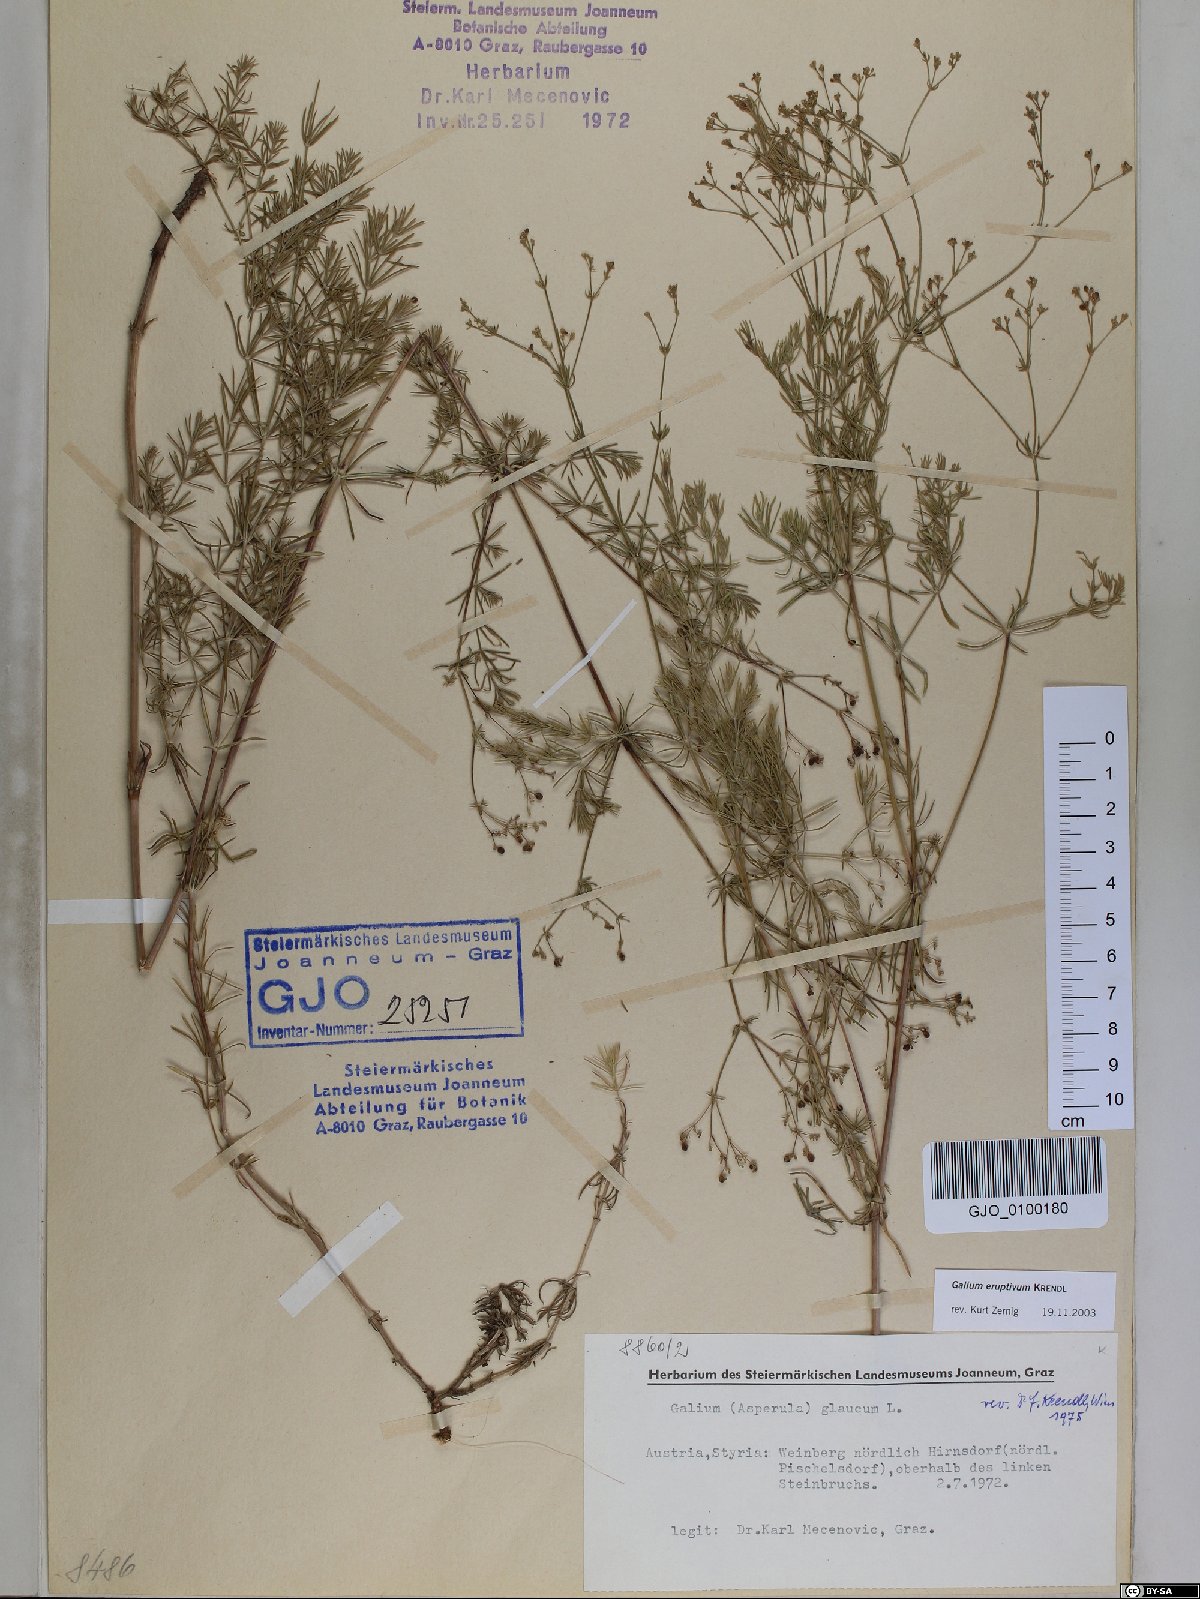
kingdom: Plantae
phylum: Tracheophyta
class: Magnoliopsida
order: Gentianales
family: Rubiaceae
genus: Galium
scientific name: Galium eruptivum
